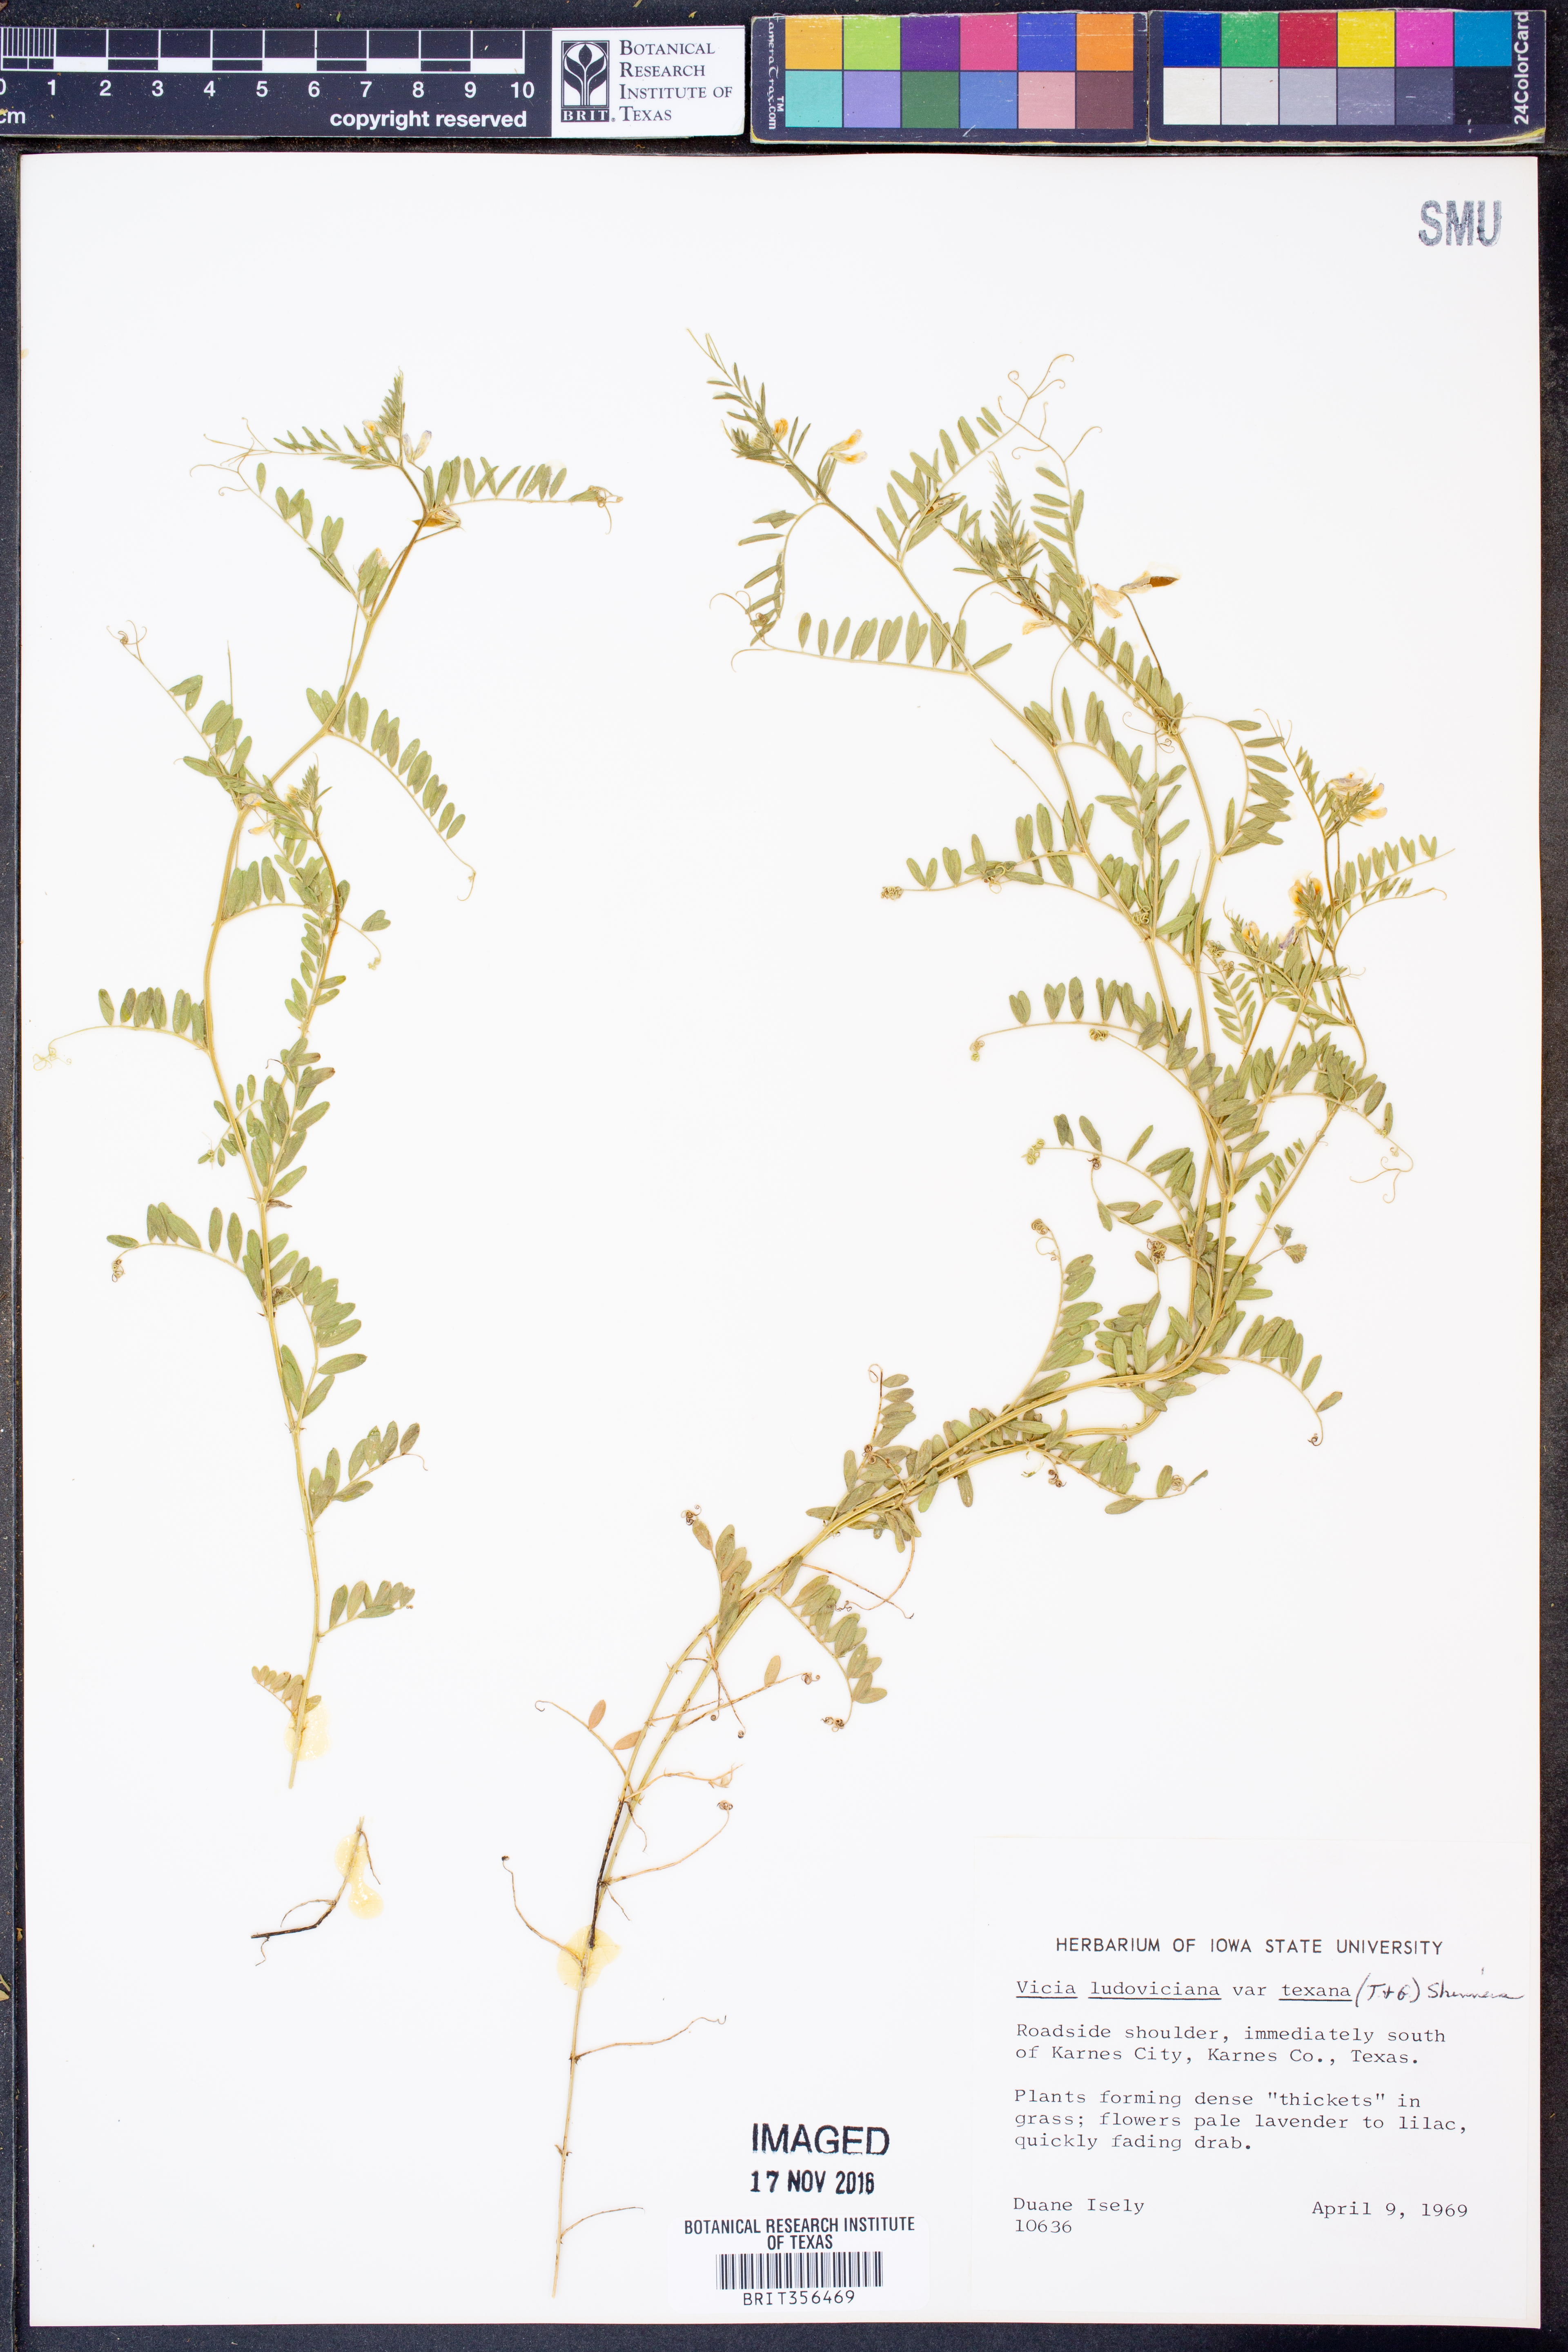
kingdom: Plantae
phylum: Tracheophyta
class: Magnoliopsida
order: Fabales
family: Fabaceae
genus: Vicia
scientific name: Vicia ludoviciana
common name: Louisiana vetch
